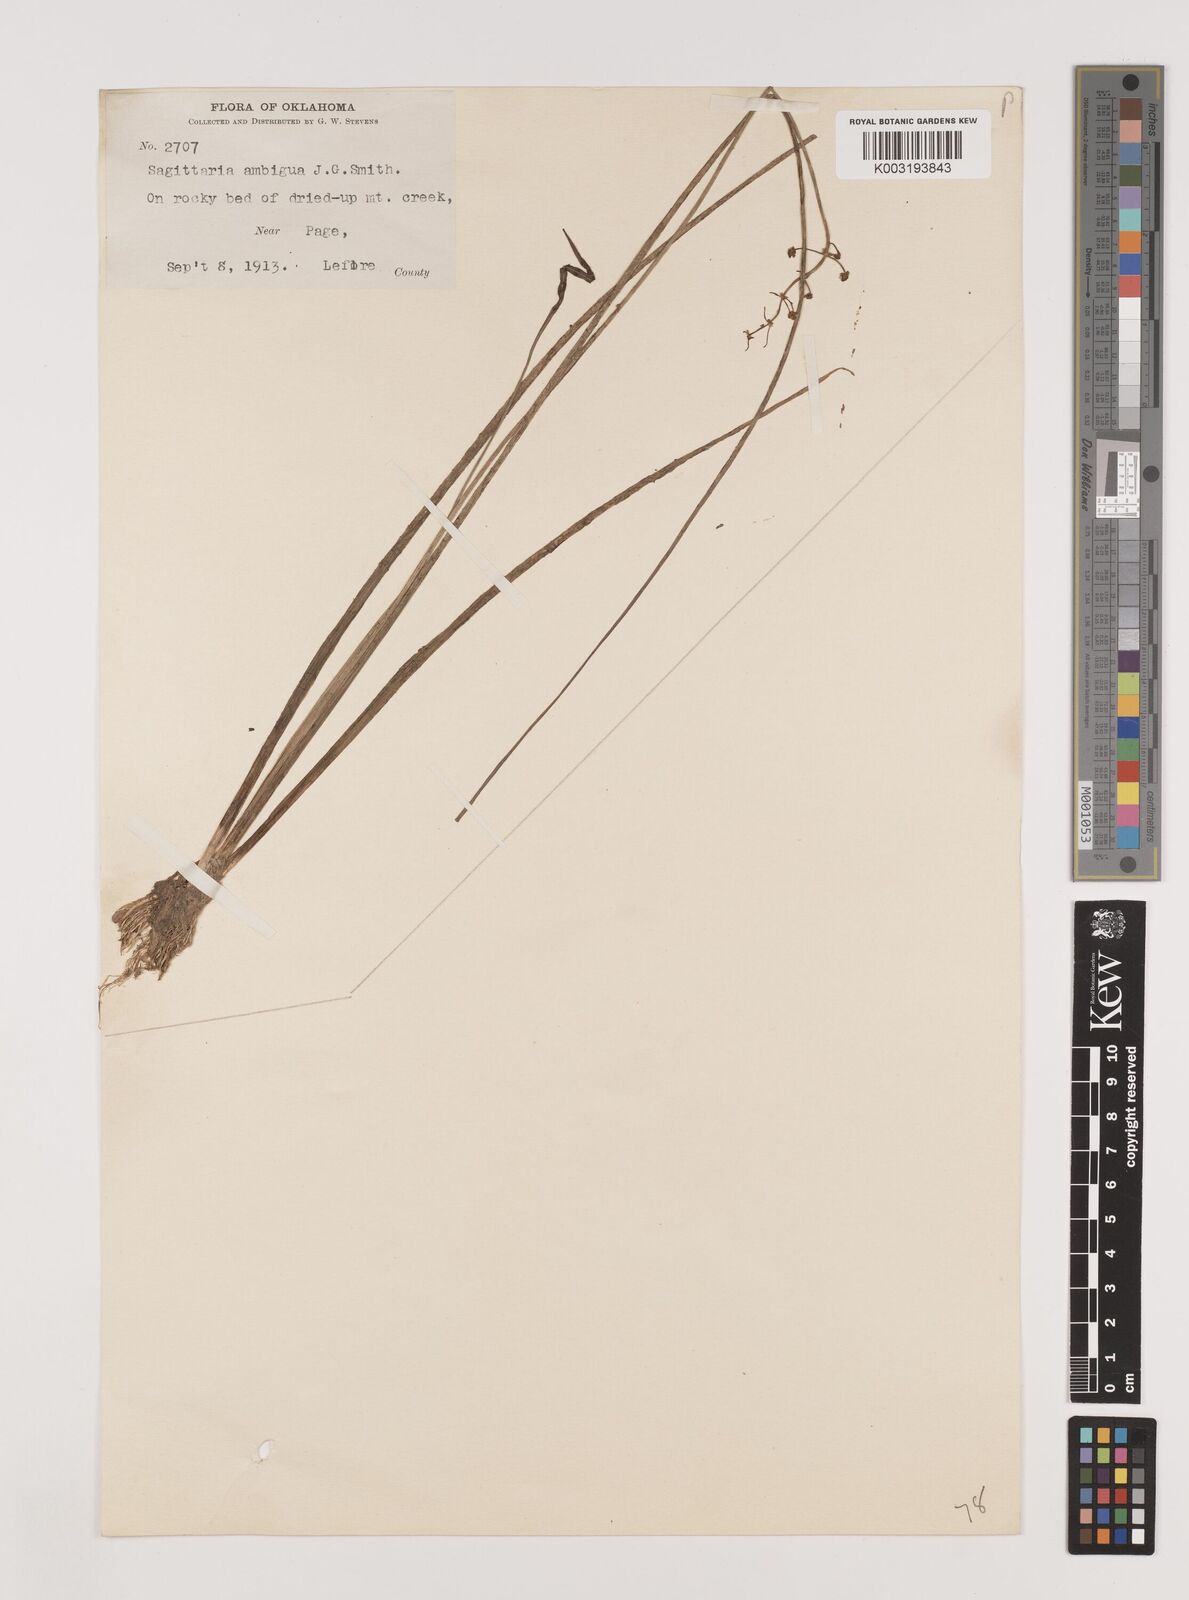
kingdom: Plantae
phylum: Tracheophyta
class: Liliopsida
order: Alismatales
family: Alismataceae
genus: Sagittaria
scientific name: Sagittaria ambigua
